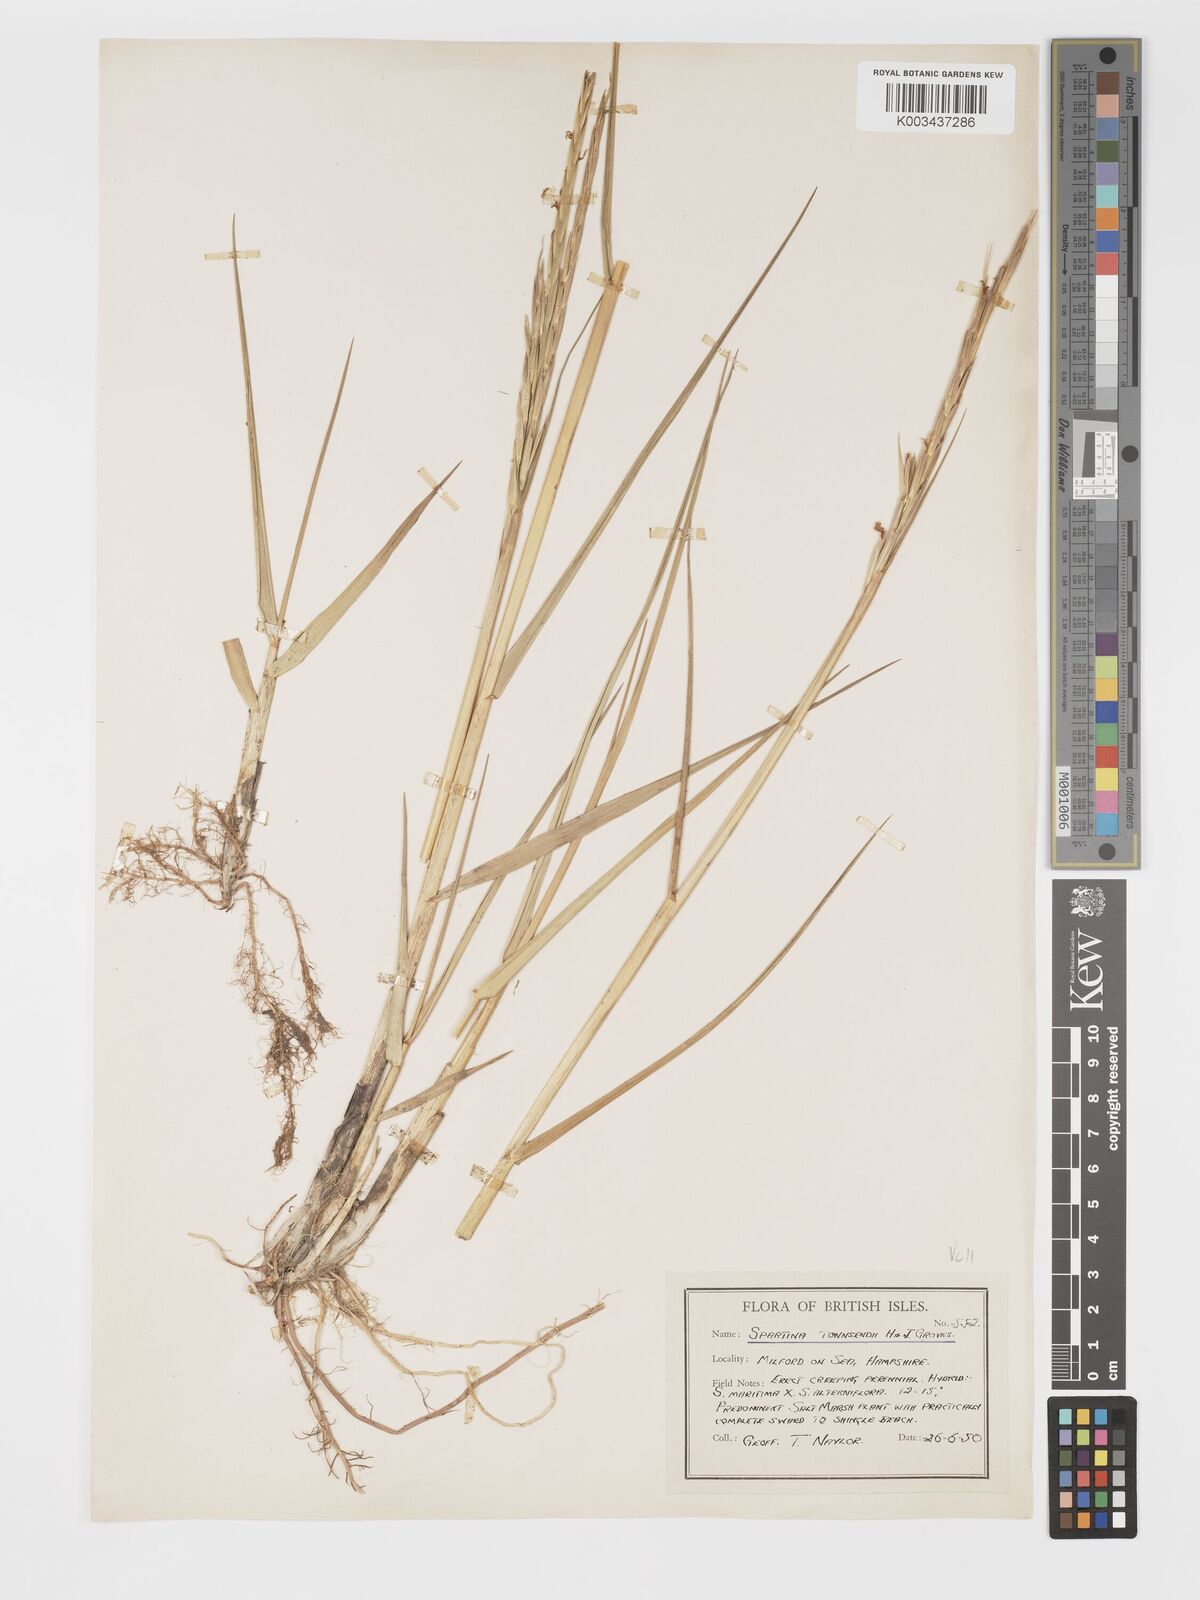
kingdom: Plantae
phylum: Tracheophyta
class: Liliopsida
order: Poales
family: Poaceae
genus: Sporobolus
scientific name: Sporobolus townsendii
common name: Townsend's cordgrass
